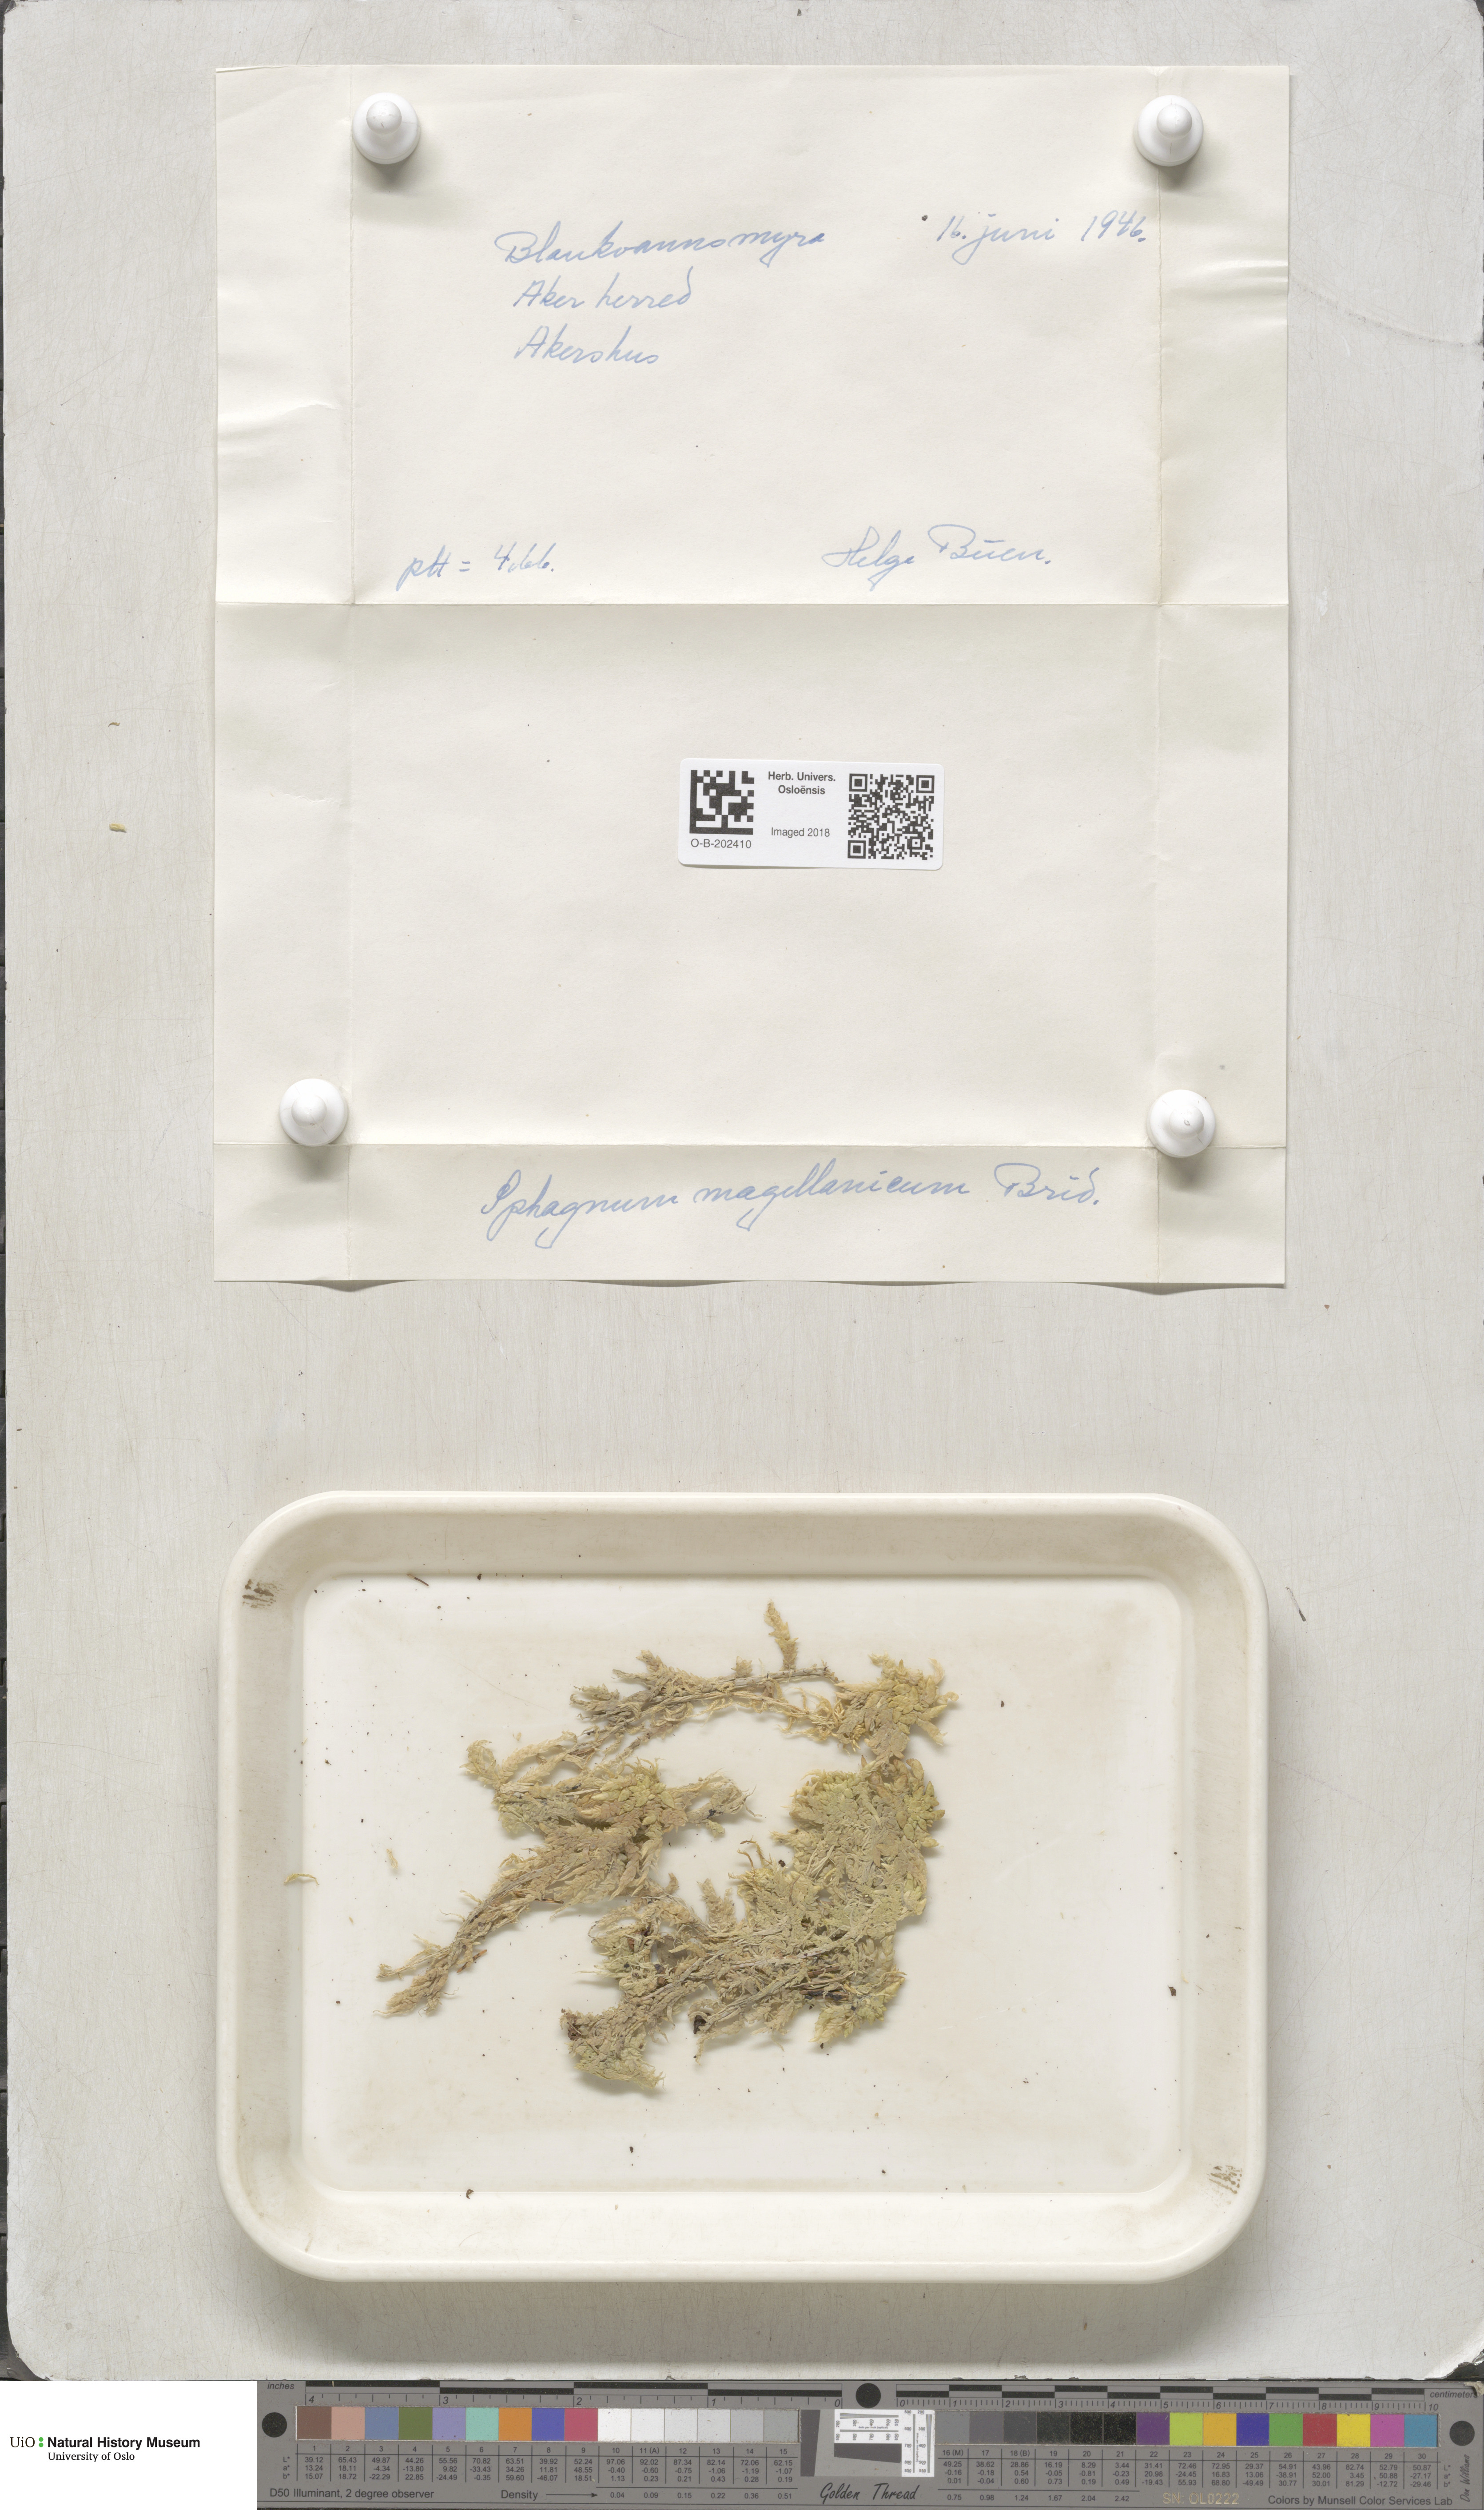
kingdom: Plantae
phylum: Bryophyta
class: Sphagnopsida
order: Sphagnales
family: Sphagnaceae
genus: Sphagnum
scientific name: Sphagnum magellanicum
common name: Magellan's peat moss
